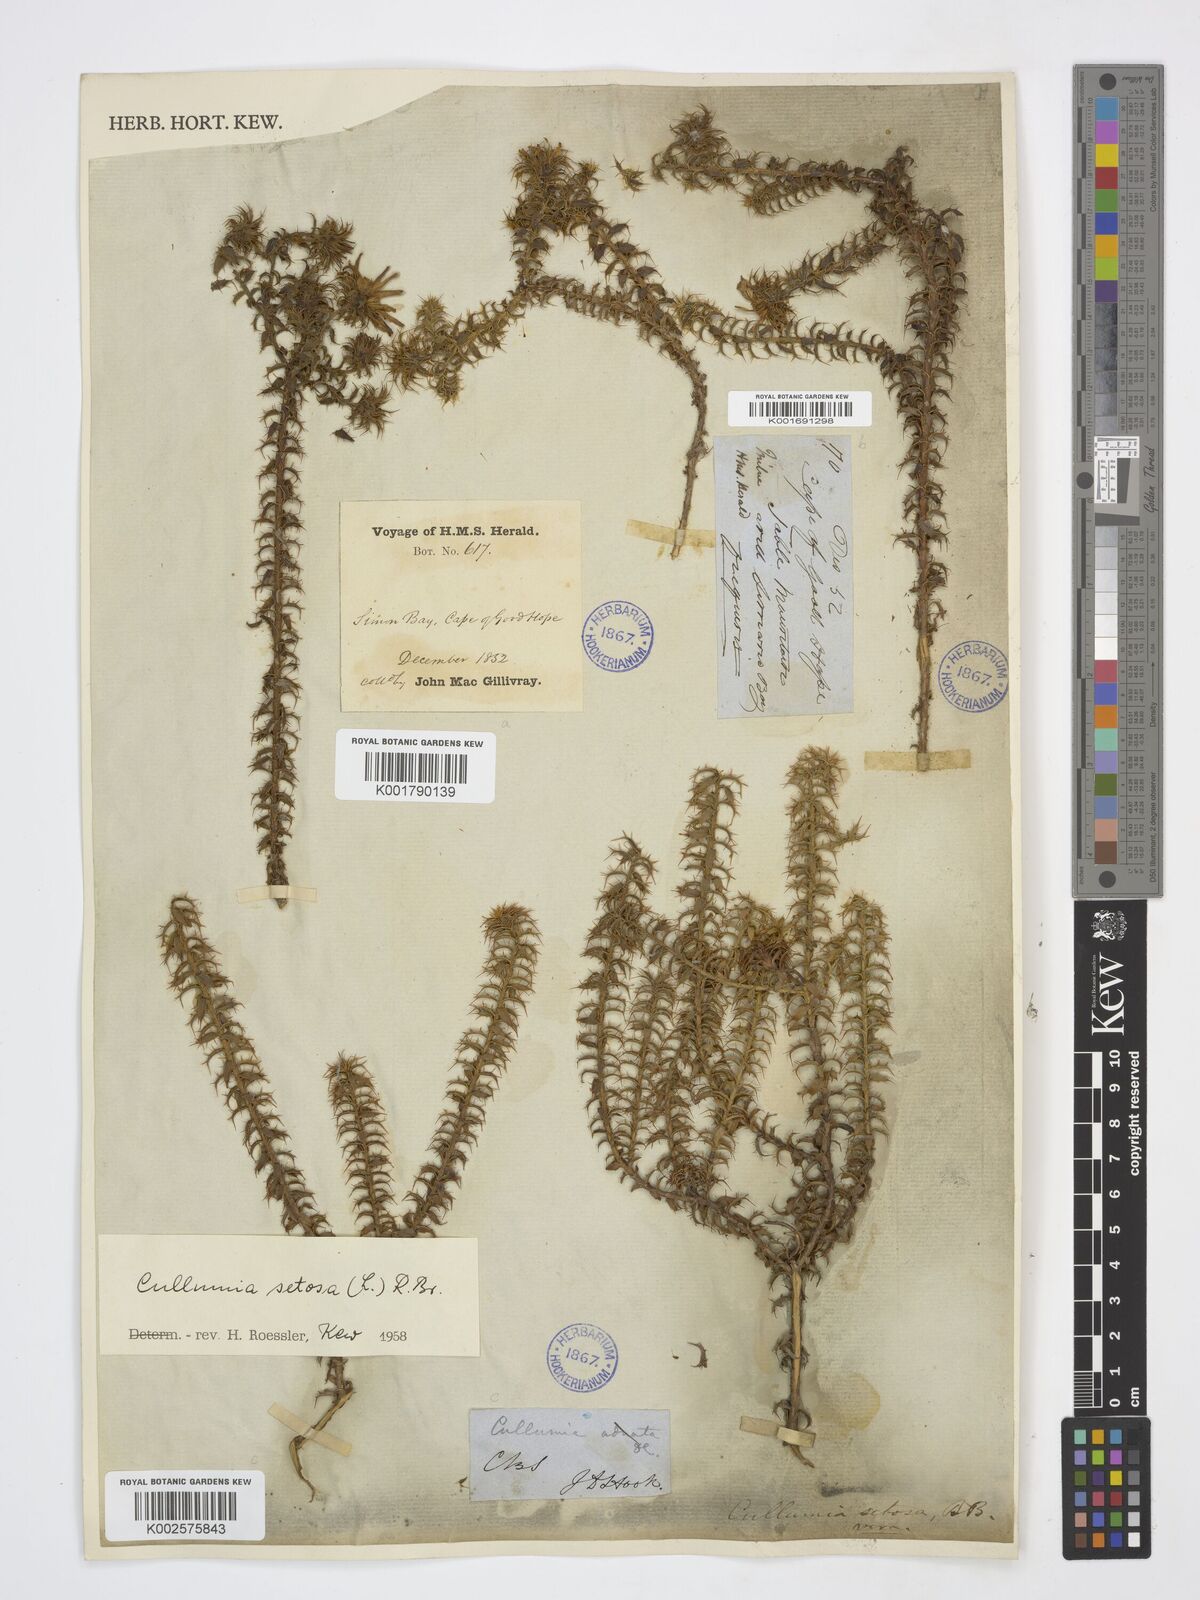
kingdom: Plantae
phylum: Tracheophyta
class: Magnoliopsida
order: Asterales
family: Asteraceae
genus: Cullumia
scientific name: Cullumia setosa
